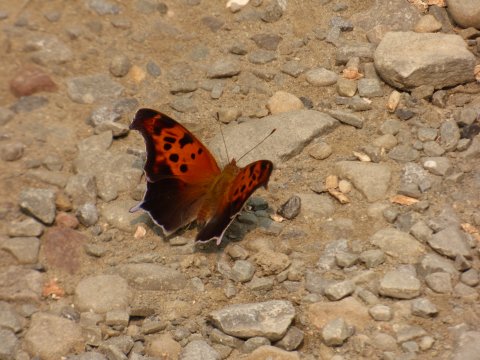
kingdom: Animalia
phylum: Arthropoda
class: Insecta
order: Lepidoptera
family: Nymphalidae
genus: Polygonia
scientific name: Polygonia interrogationis
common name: Question Mark
